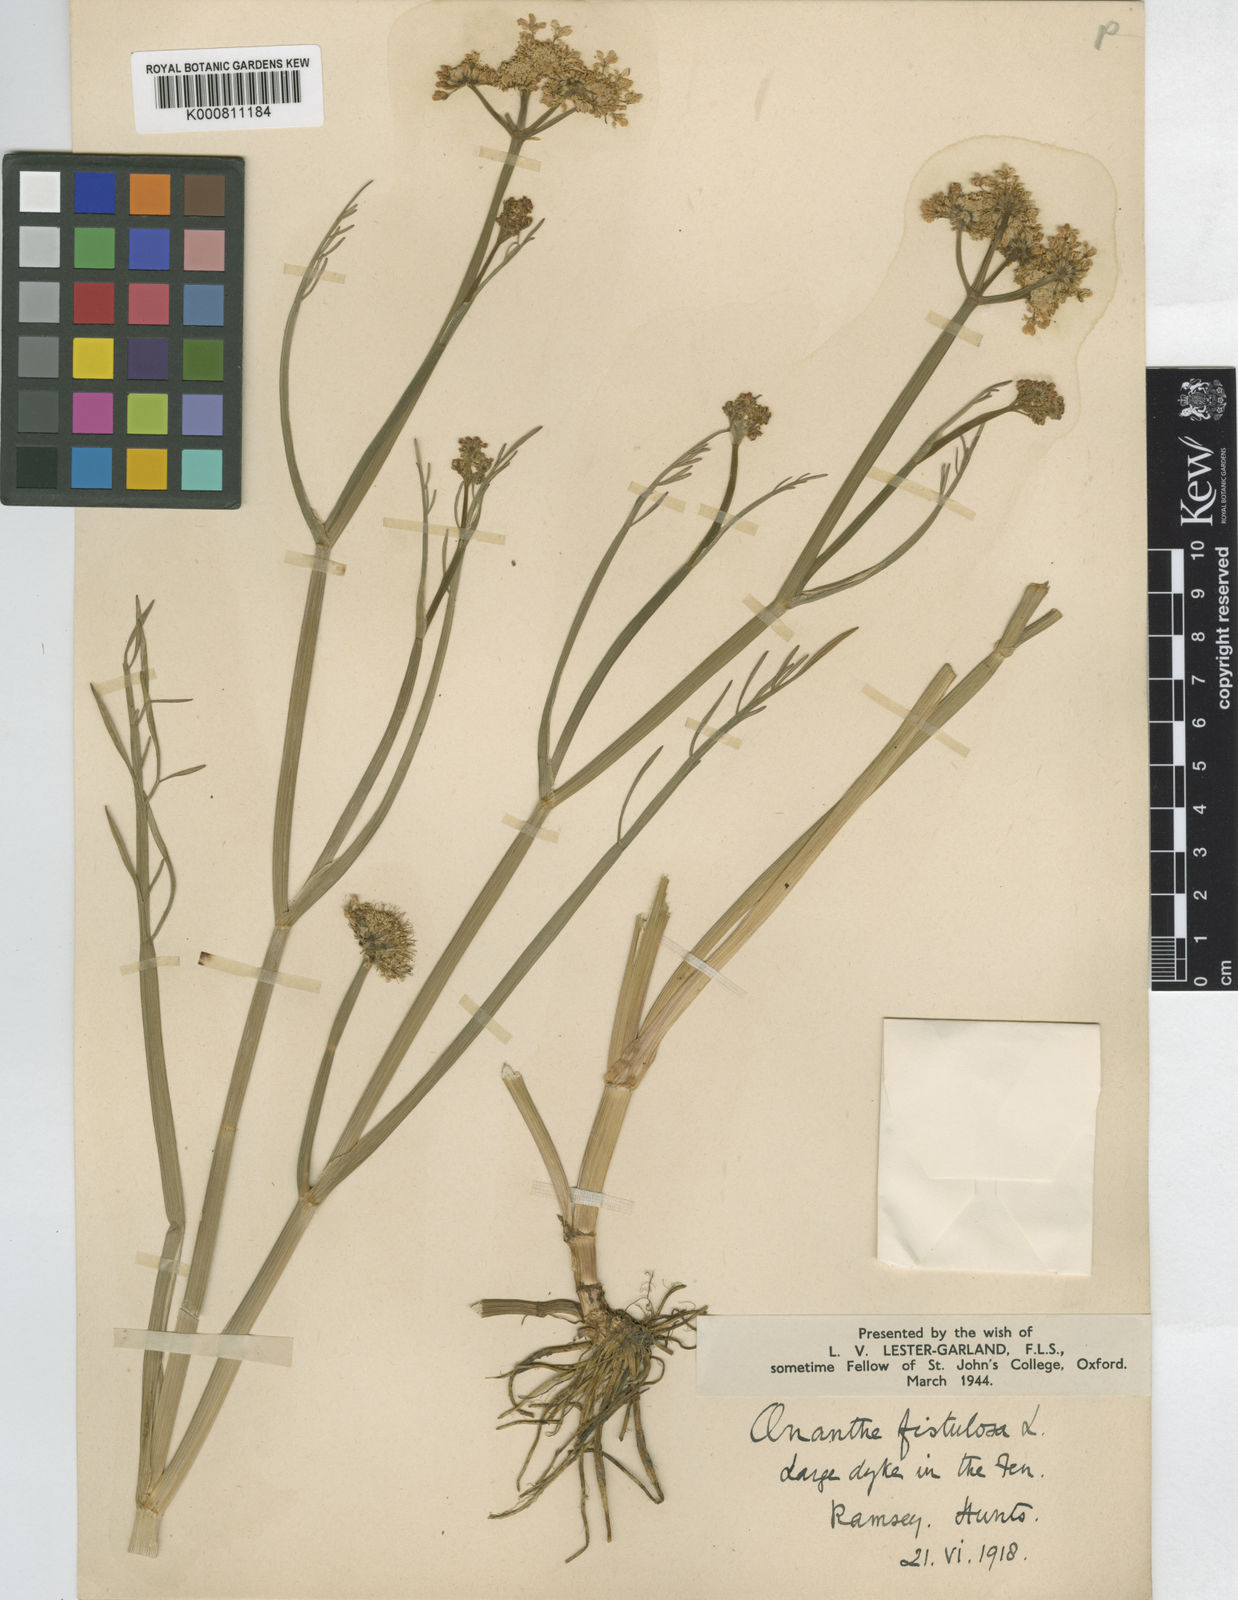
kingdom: Plantae
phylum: Tracheophyta
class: Magnoliopsida
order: Apiales
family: Apiaceae
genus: Oenanthe
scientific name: Oenanthe fistulosa
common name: Tubular water-dropwort
